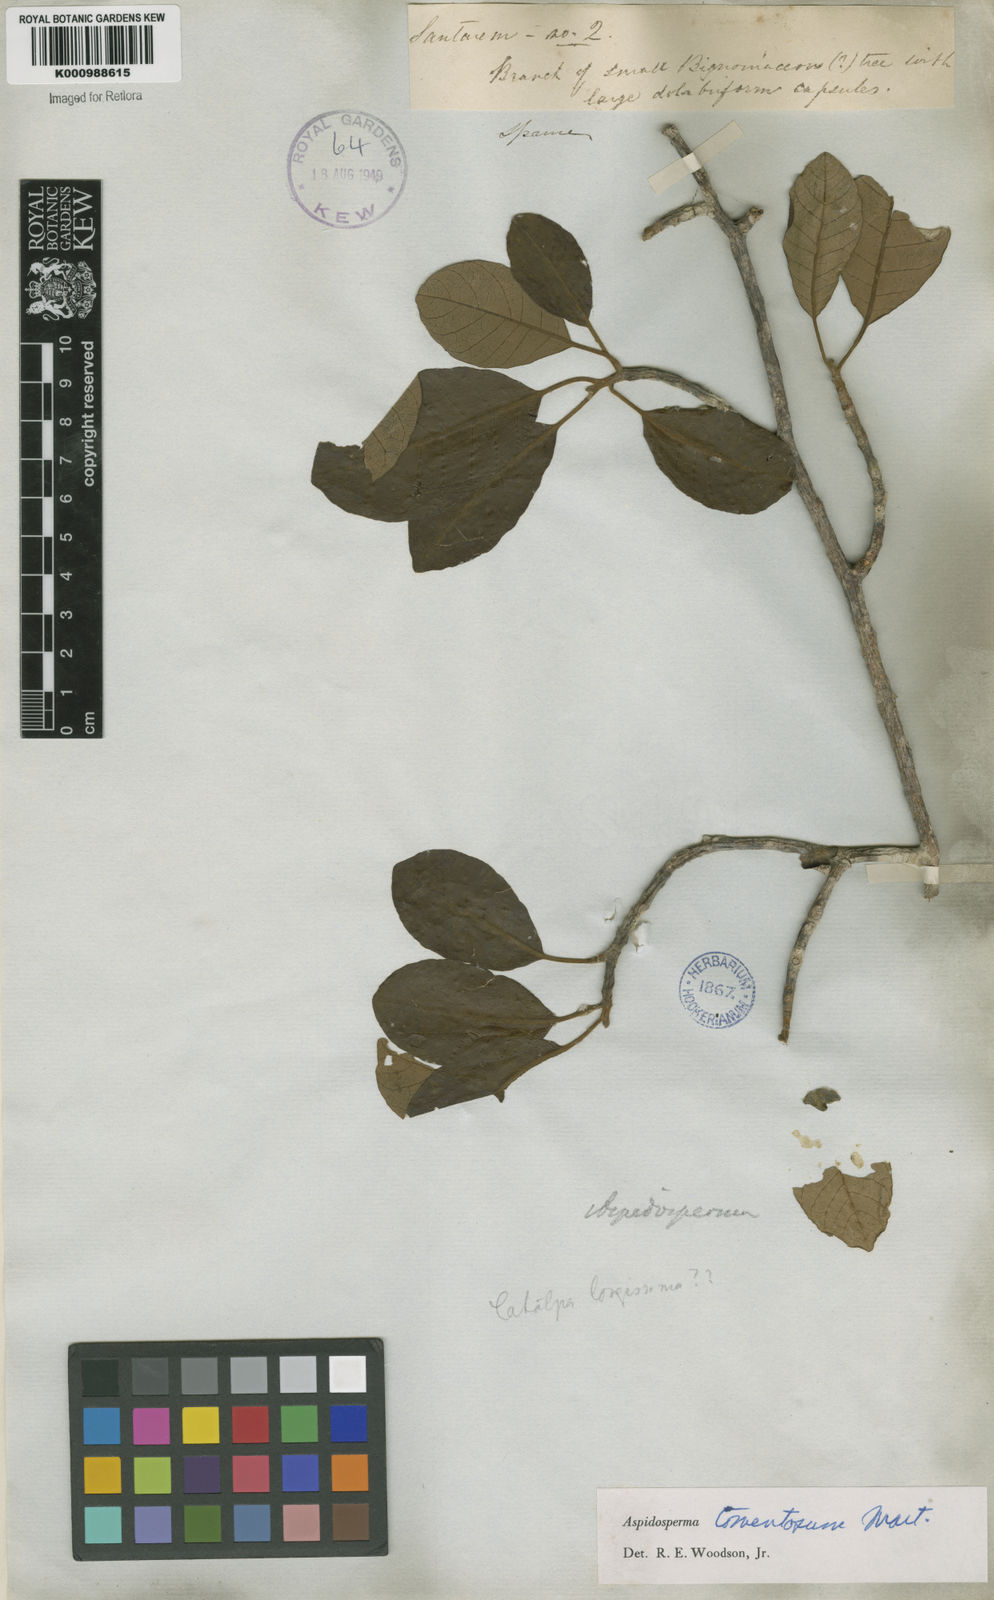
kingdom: Plantae
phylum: Tracheophyta
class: Magnoliopsida
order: Gentianales
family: Apocynaceae
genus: Aspidosperma
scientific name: Aspidosperma tomentosum
